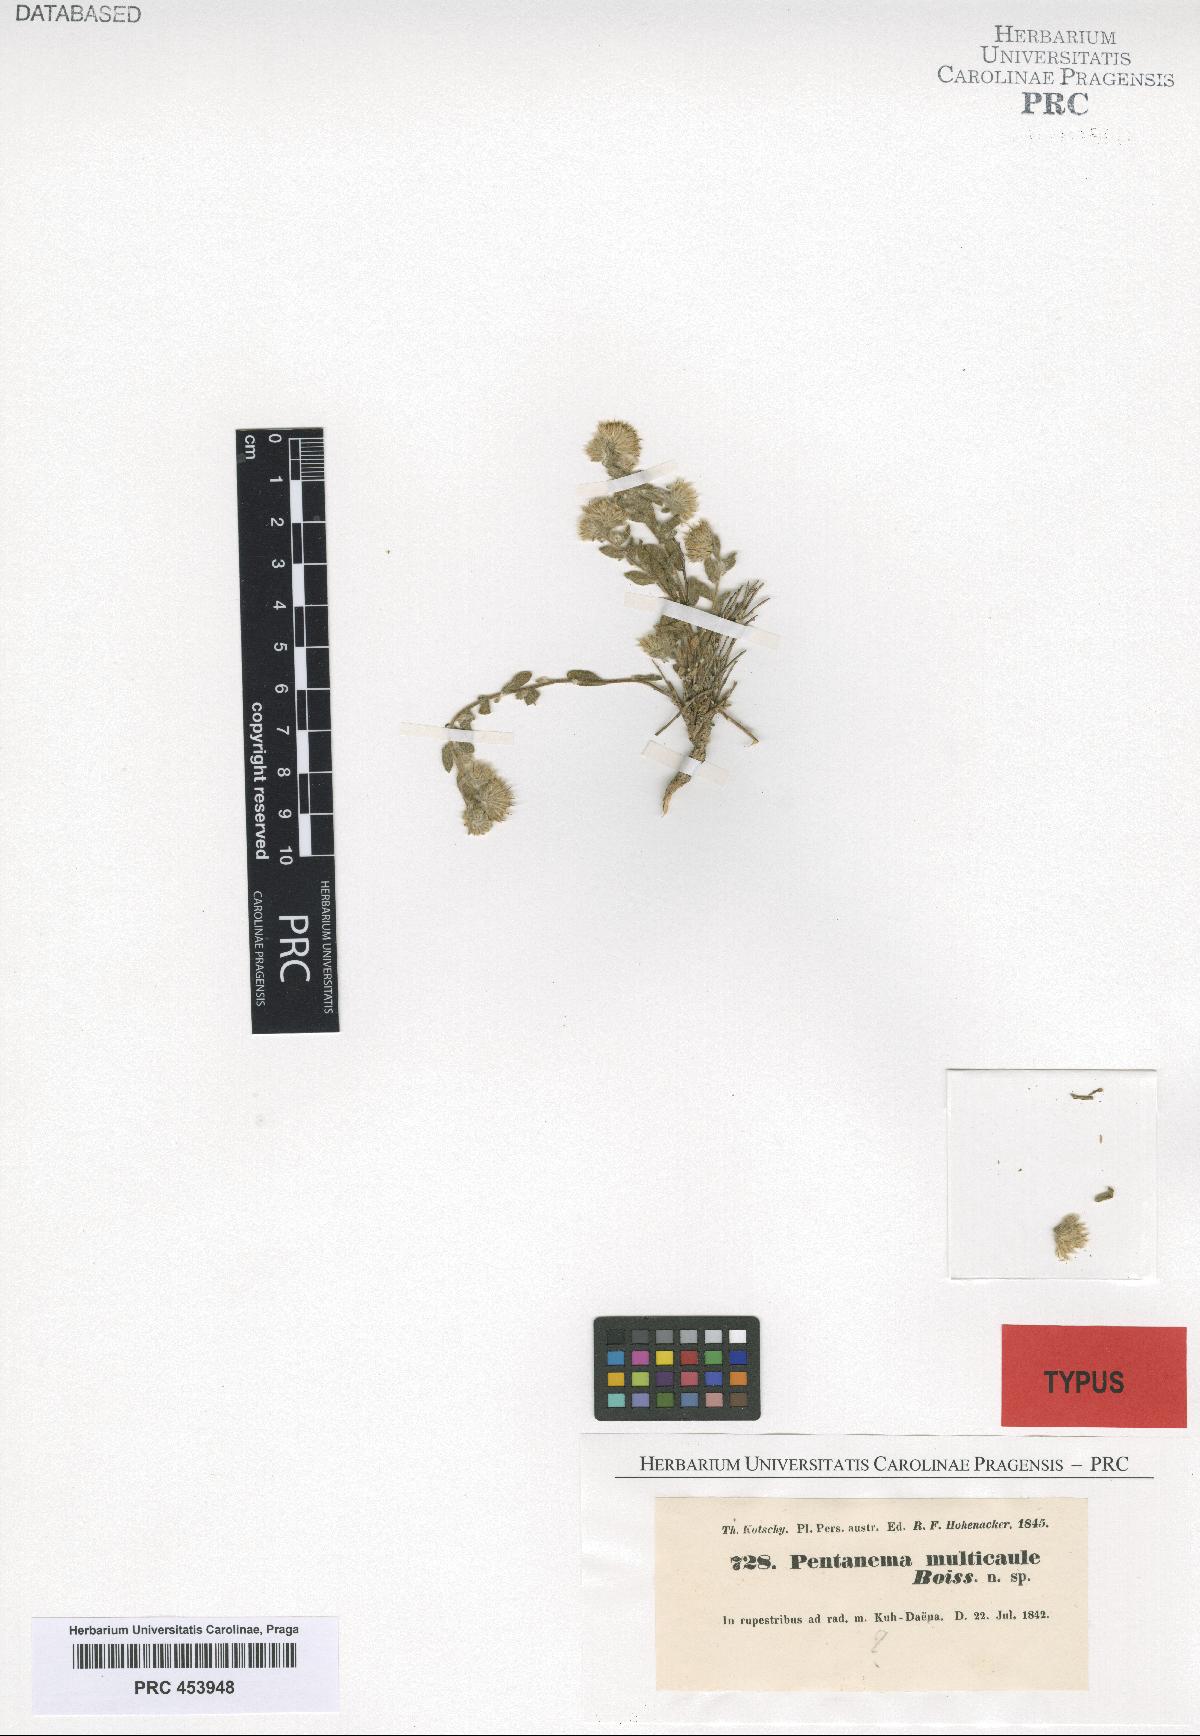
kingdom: Plantae
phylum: Tracheophyta
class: Magnoliopsida
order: Asterales
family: Asteraceae
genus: Vicoa
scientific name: Vicoa multicaulis
